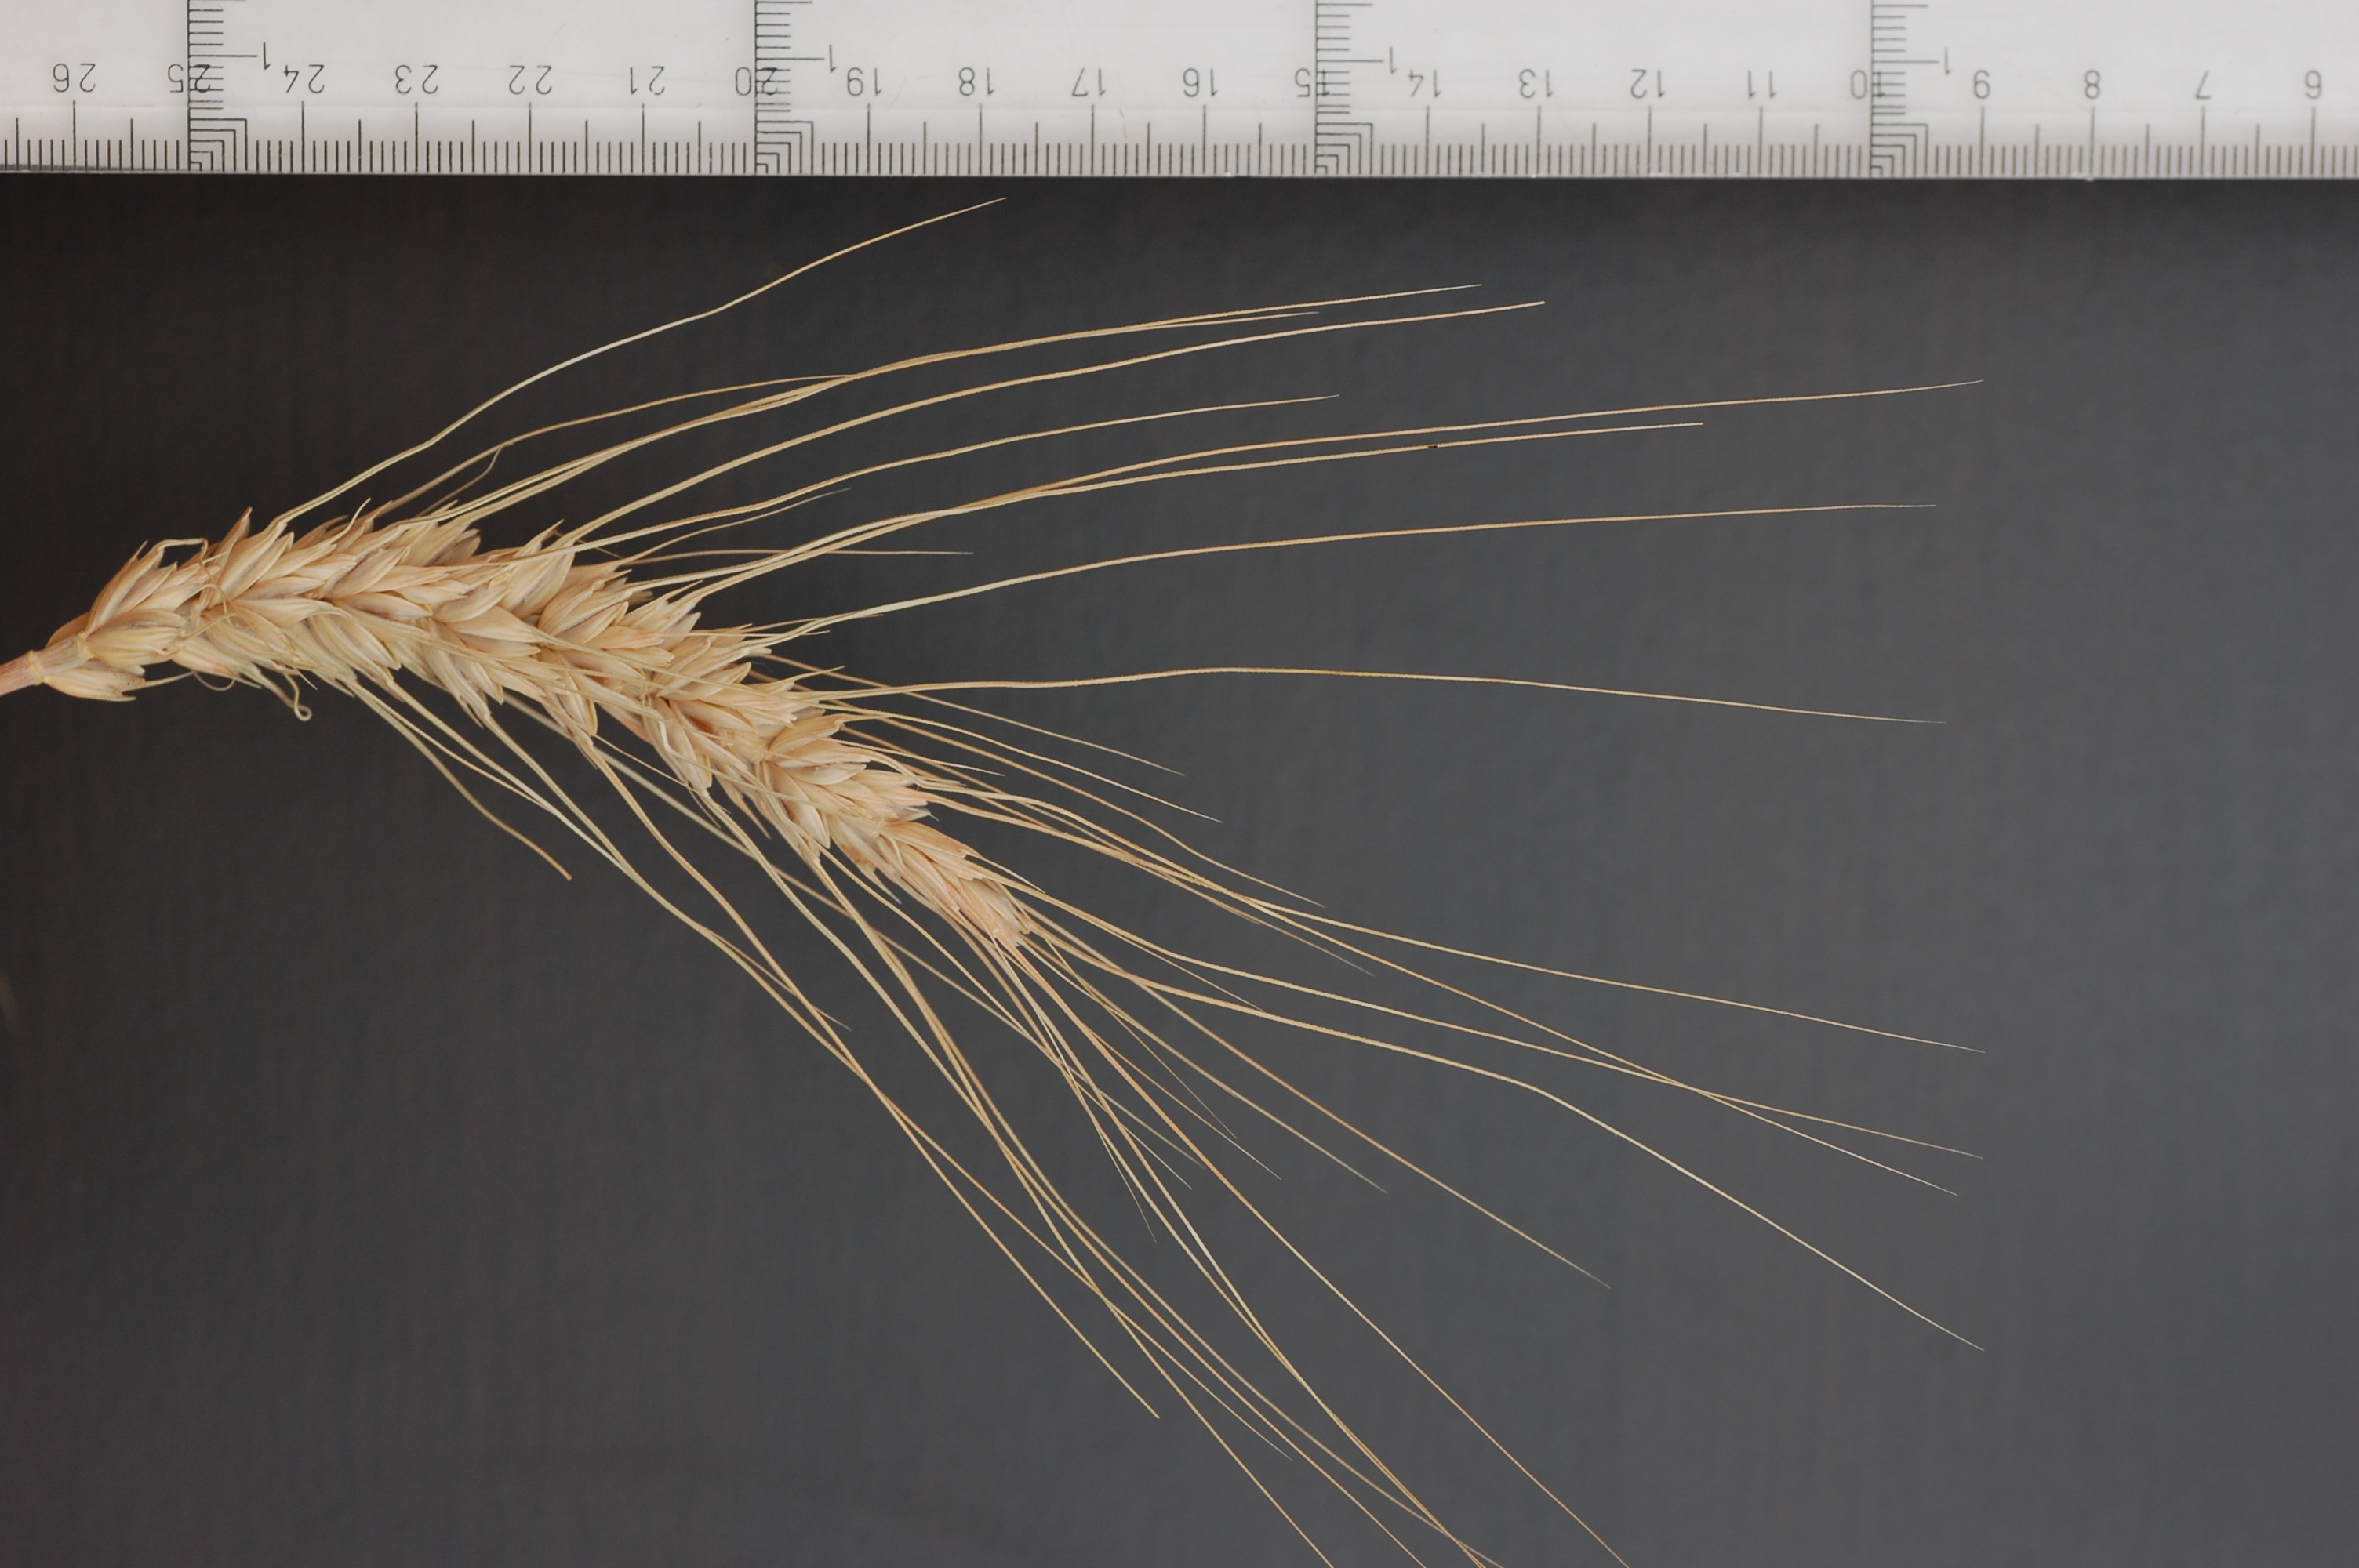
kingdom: Plantae
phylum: Tracheophyta
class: Liliopsida
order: Poales
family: Poaceae
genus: Triticum
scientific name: Triticum aestivum
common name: Common wheat
